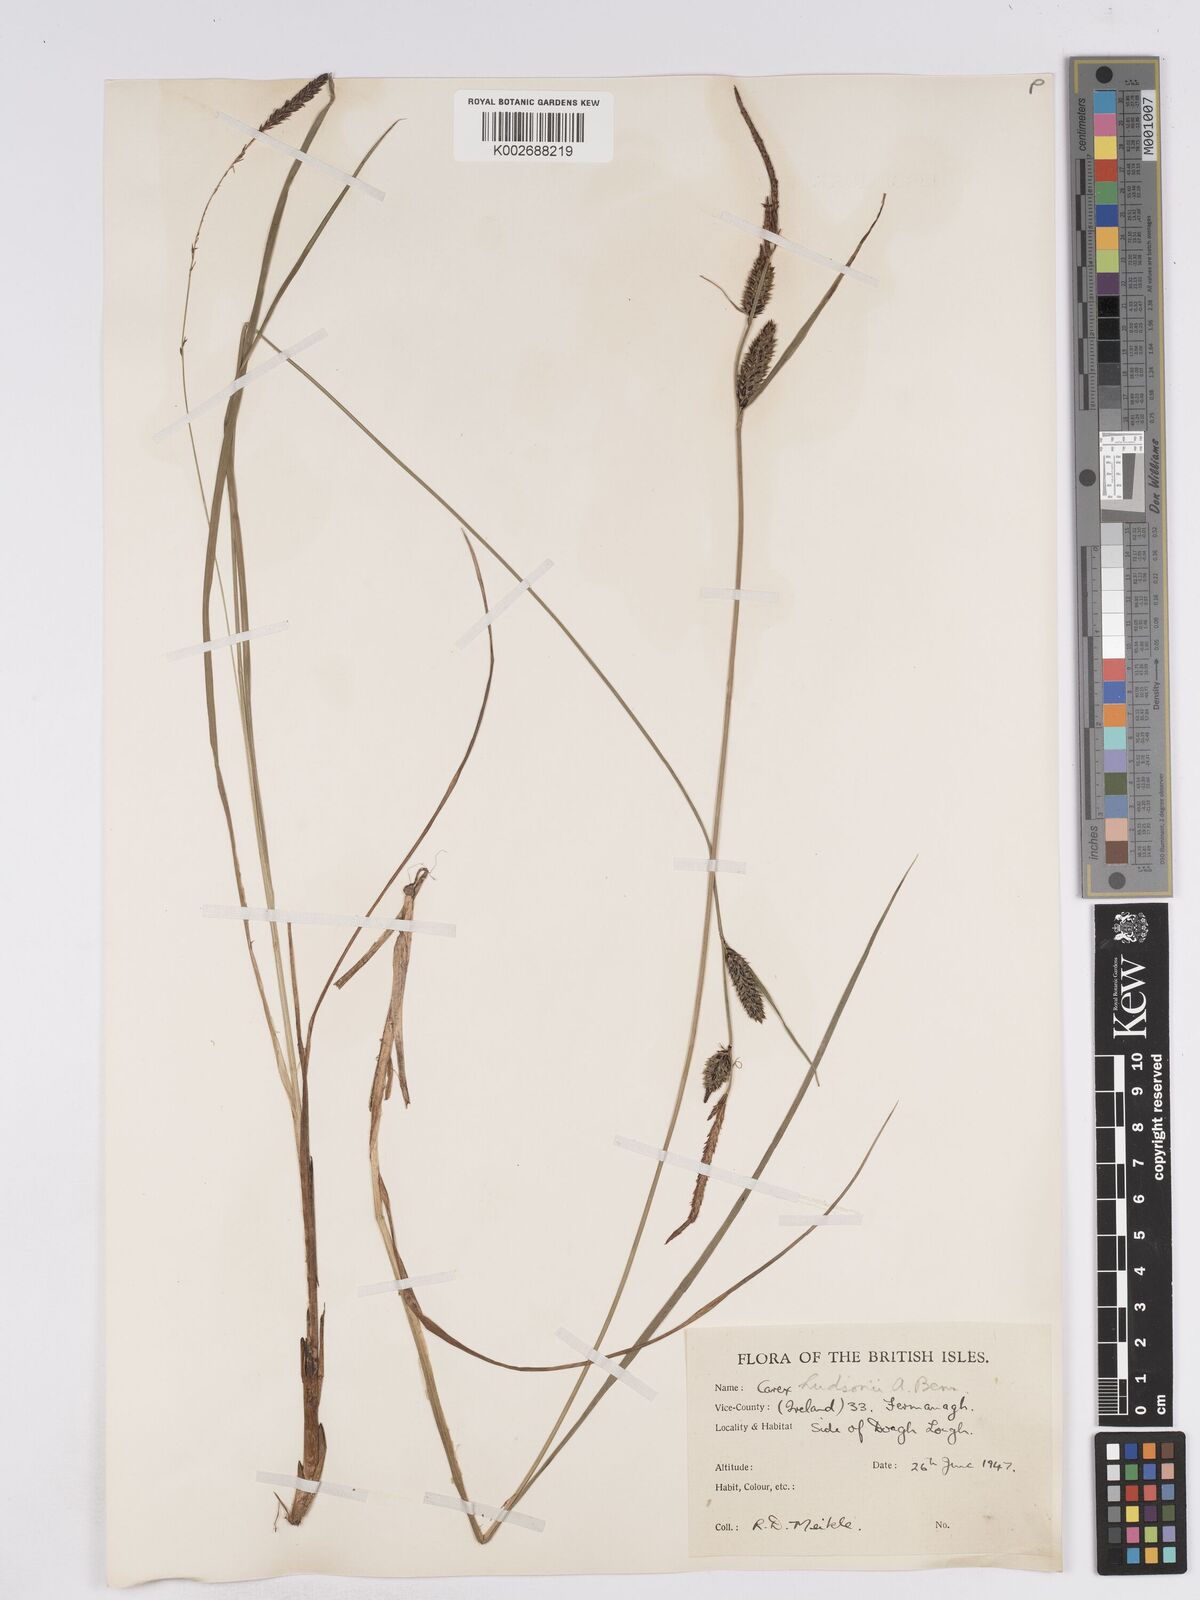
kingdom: Plantae
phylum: Tracheophyta
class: Liliopsida
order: Poales
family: Cyperaceae
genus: Carex
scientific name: Carex elata
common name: Tufted sedge
